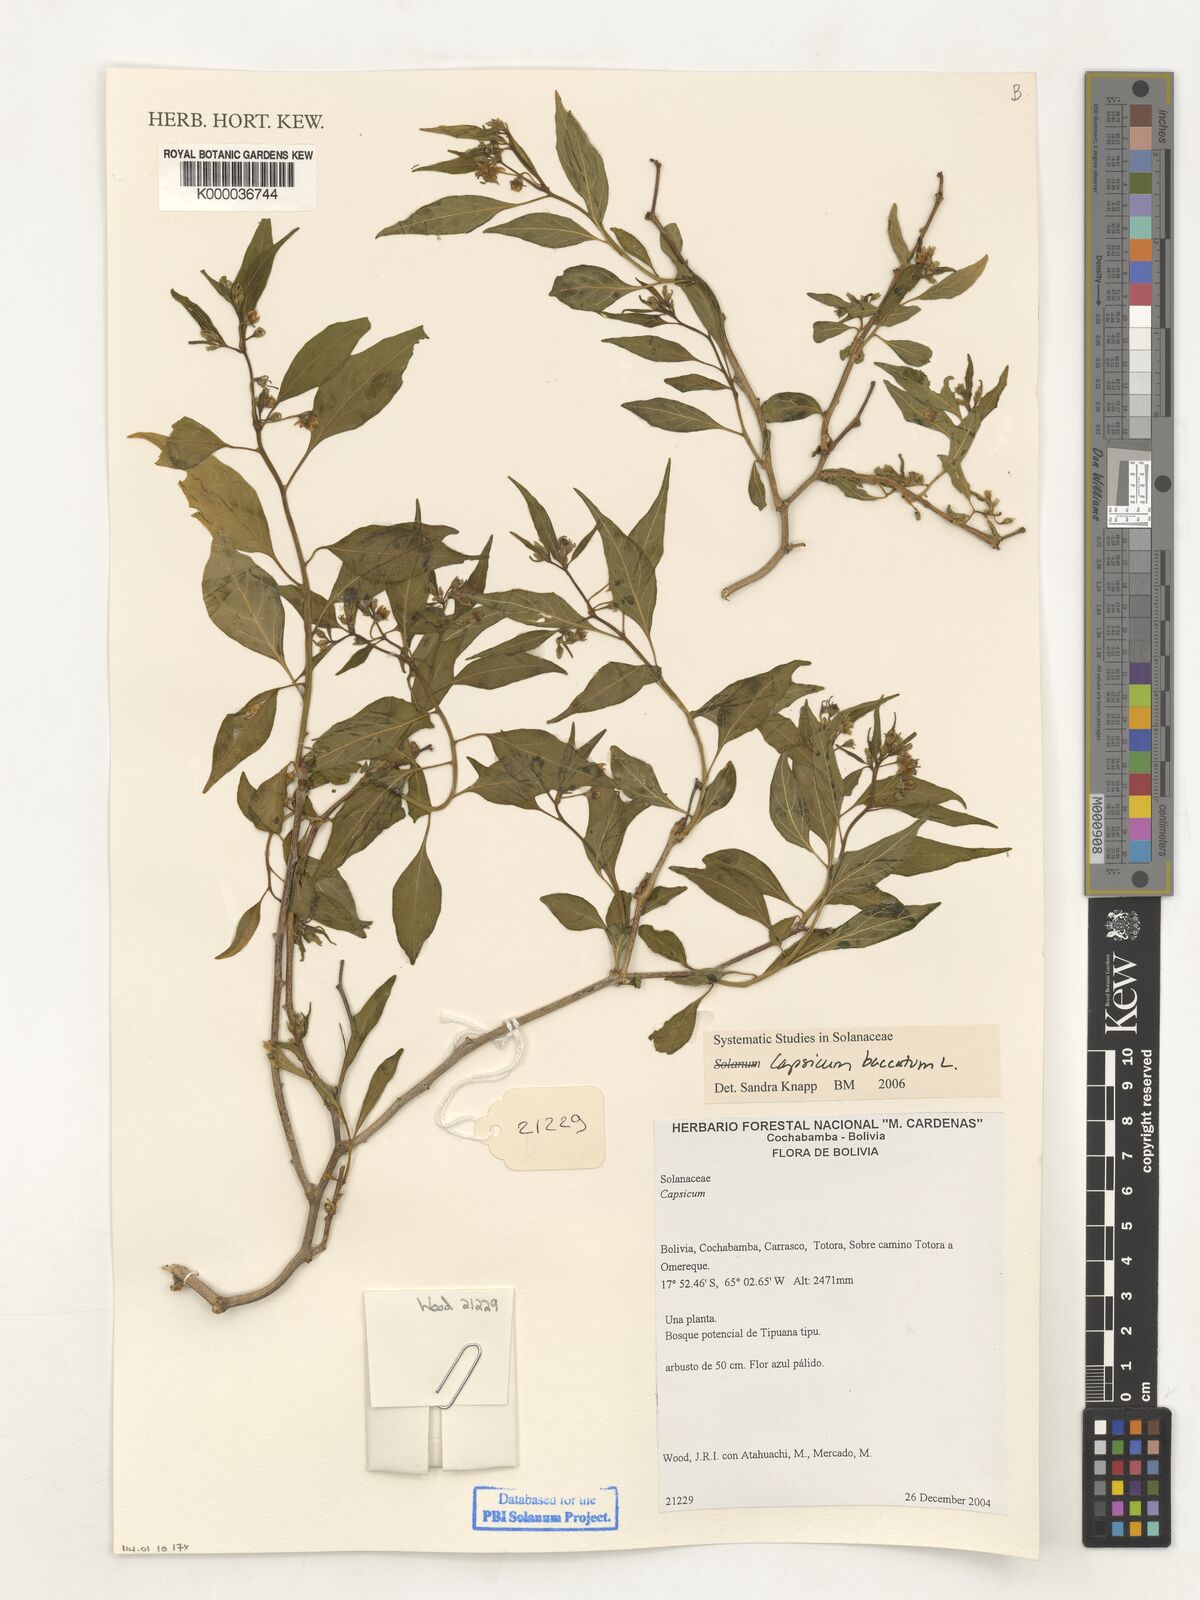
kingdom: Plantae
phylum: Tracheophyta
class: Magnoliopsida
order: Solanales
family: Solanaceae
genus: Capsicum
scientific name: Capsicum
